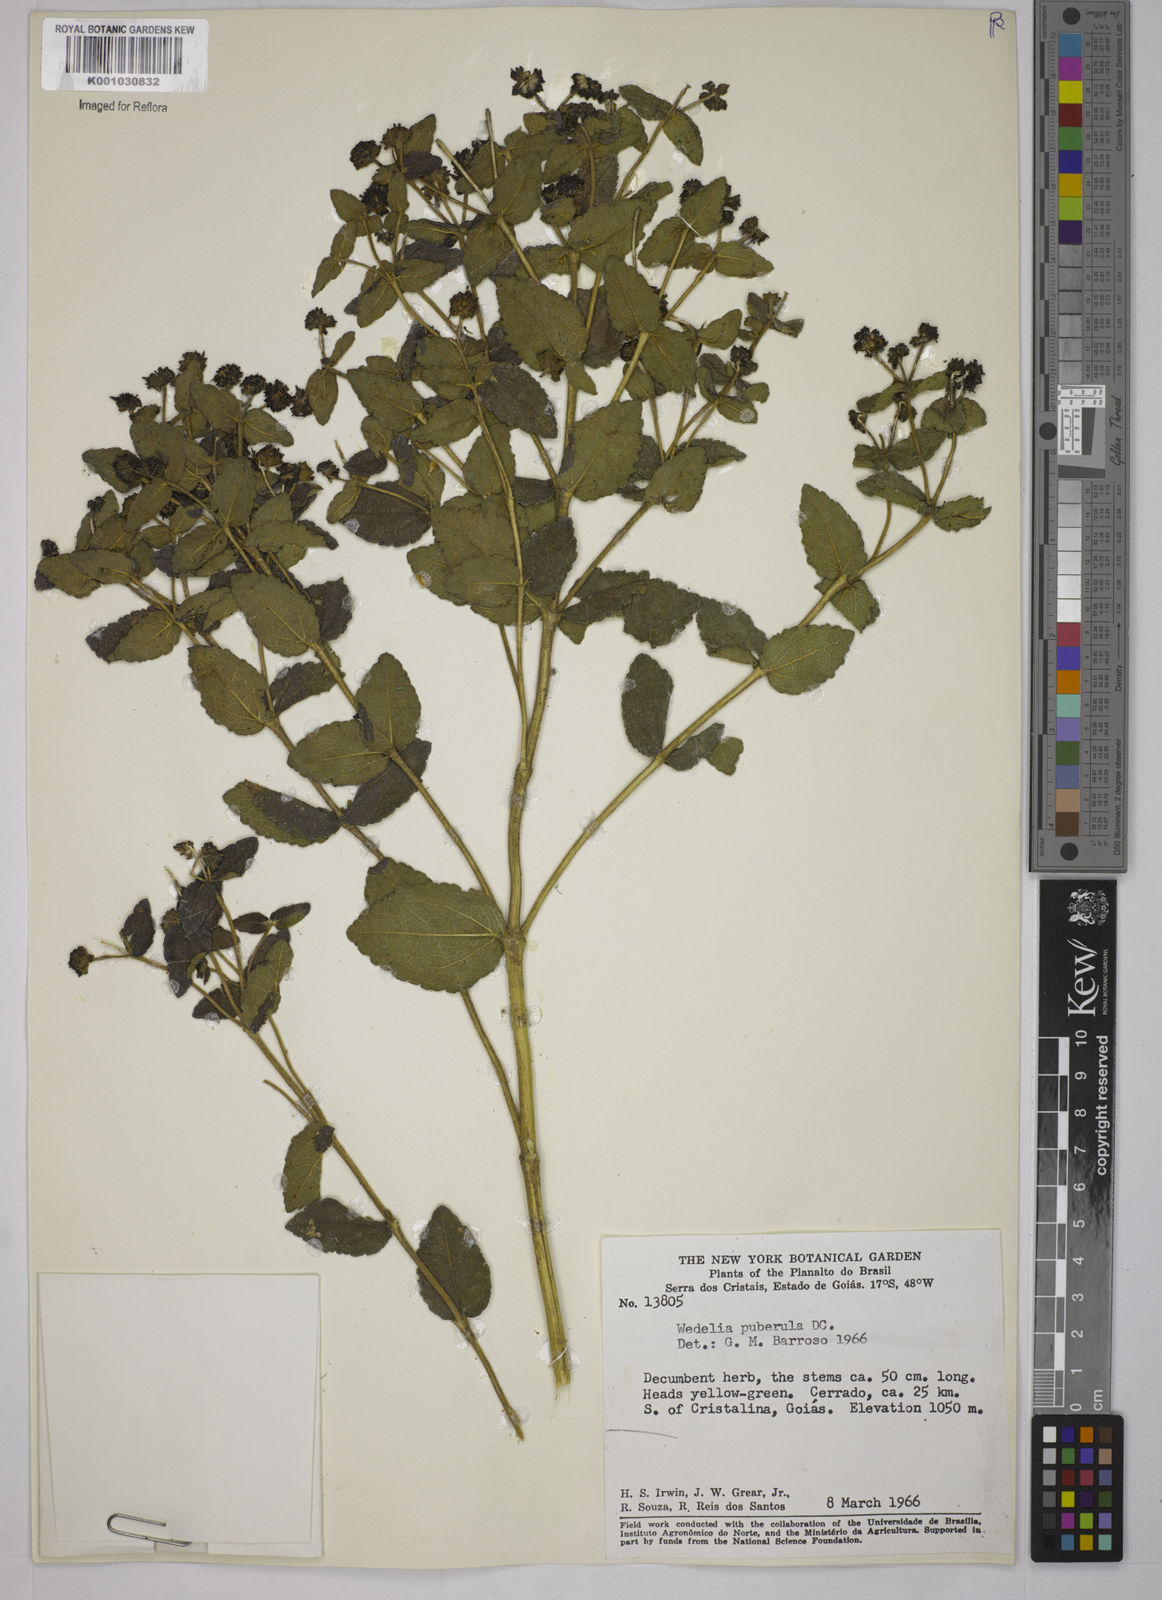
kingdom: Plantae
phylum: Tracheophyta
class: Magnoliopsida
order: Asterales
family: Asteraceae
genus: Wedelia
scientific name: Wedelia puberula
